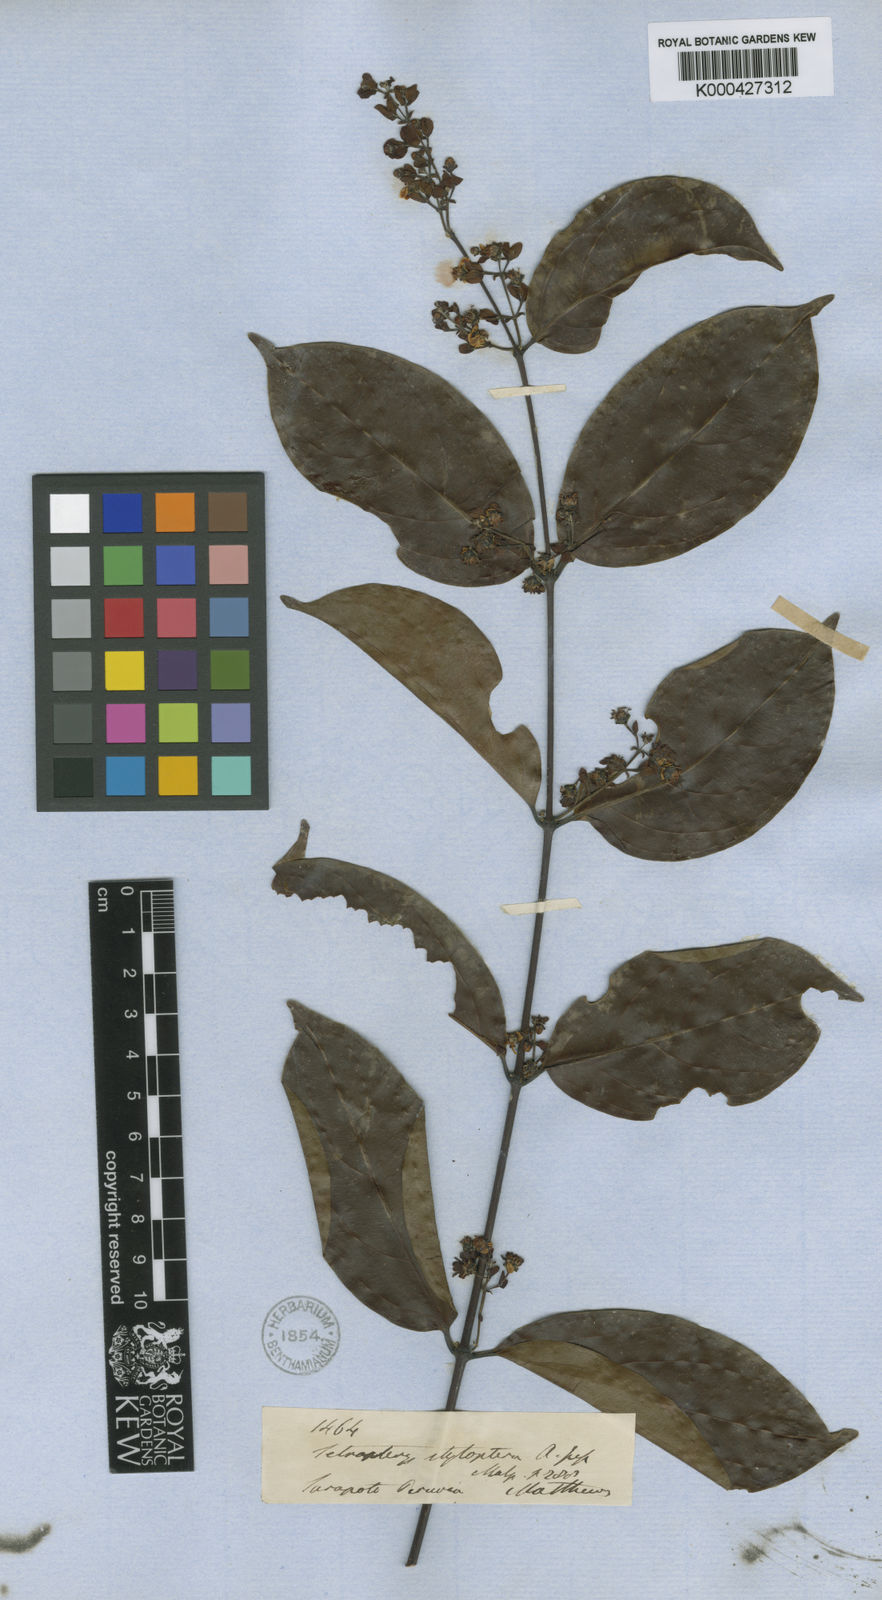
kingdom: Plantae
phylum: Tracheophyta
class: Magnoliopsida
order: Malpighiales
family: Malpighiaceae
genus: Glicophyllum
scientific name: Glicophyllum stylopterum
